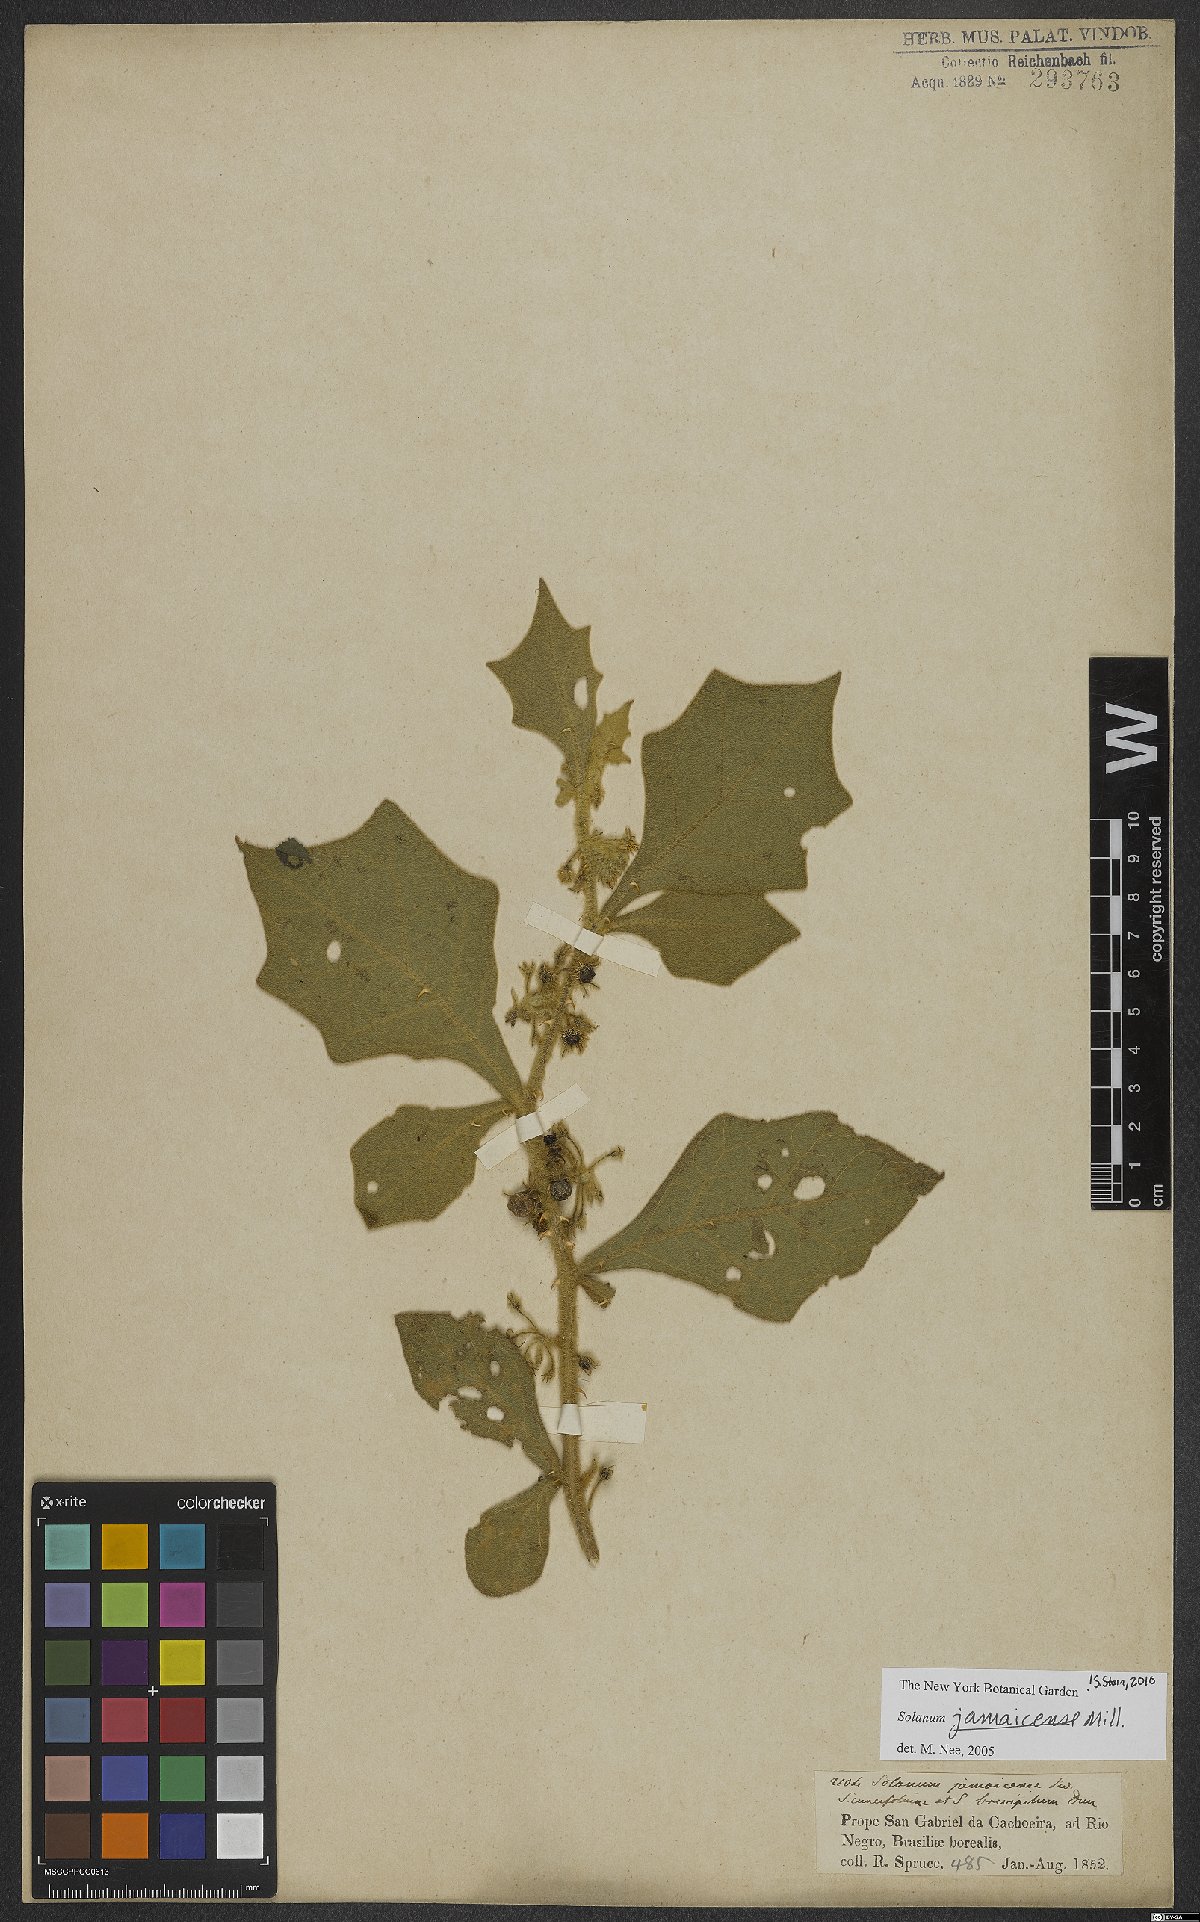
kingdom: Plantae
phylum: Tracheophyta
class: Magnoliopsida
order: Solanales
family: Solanaceae
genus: Solanum
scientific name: Solanum jamaicense
